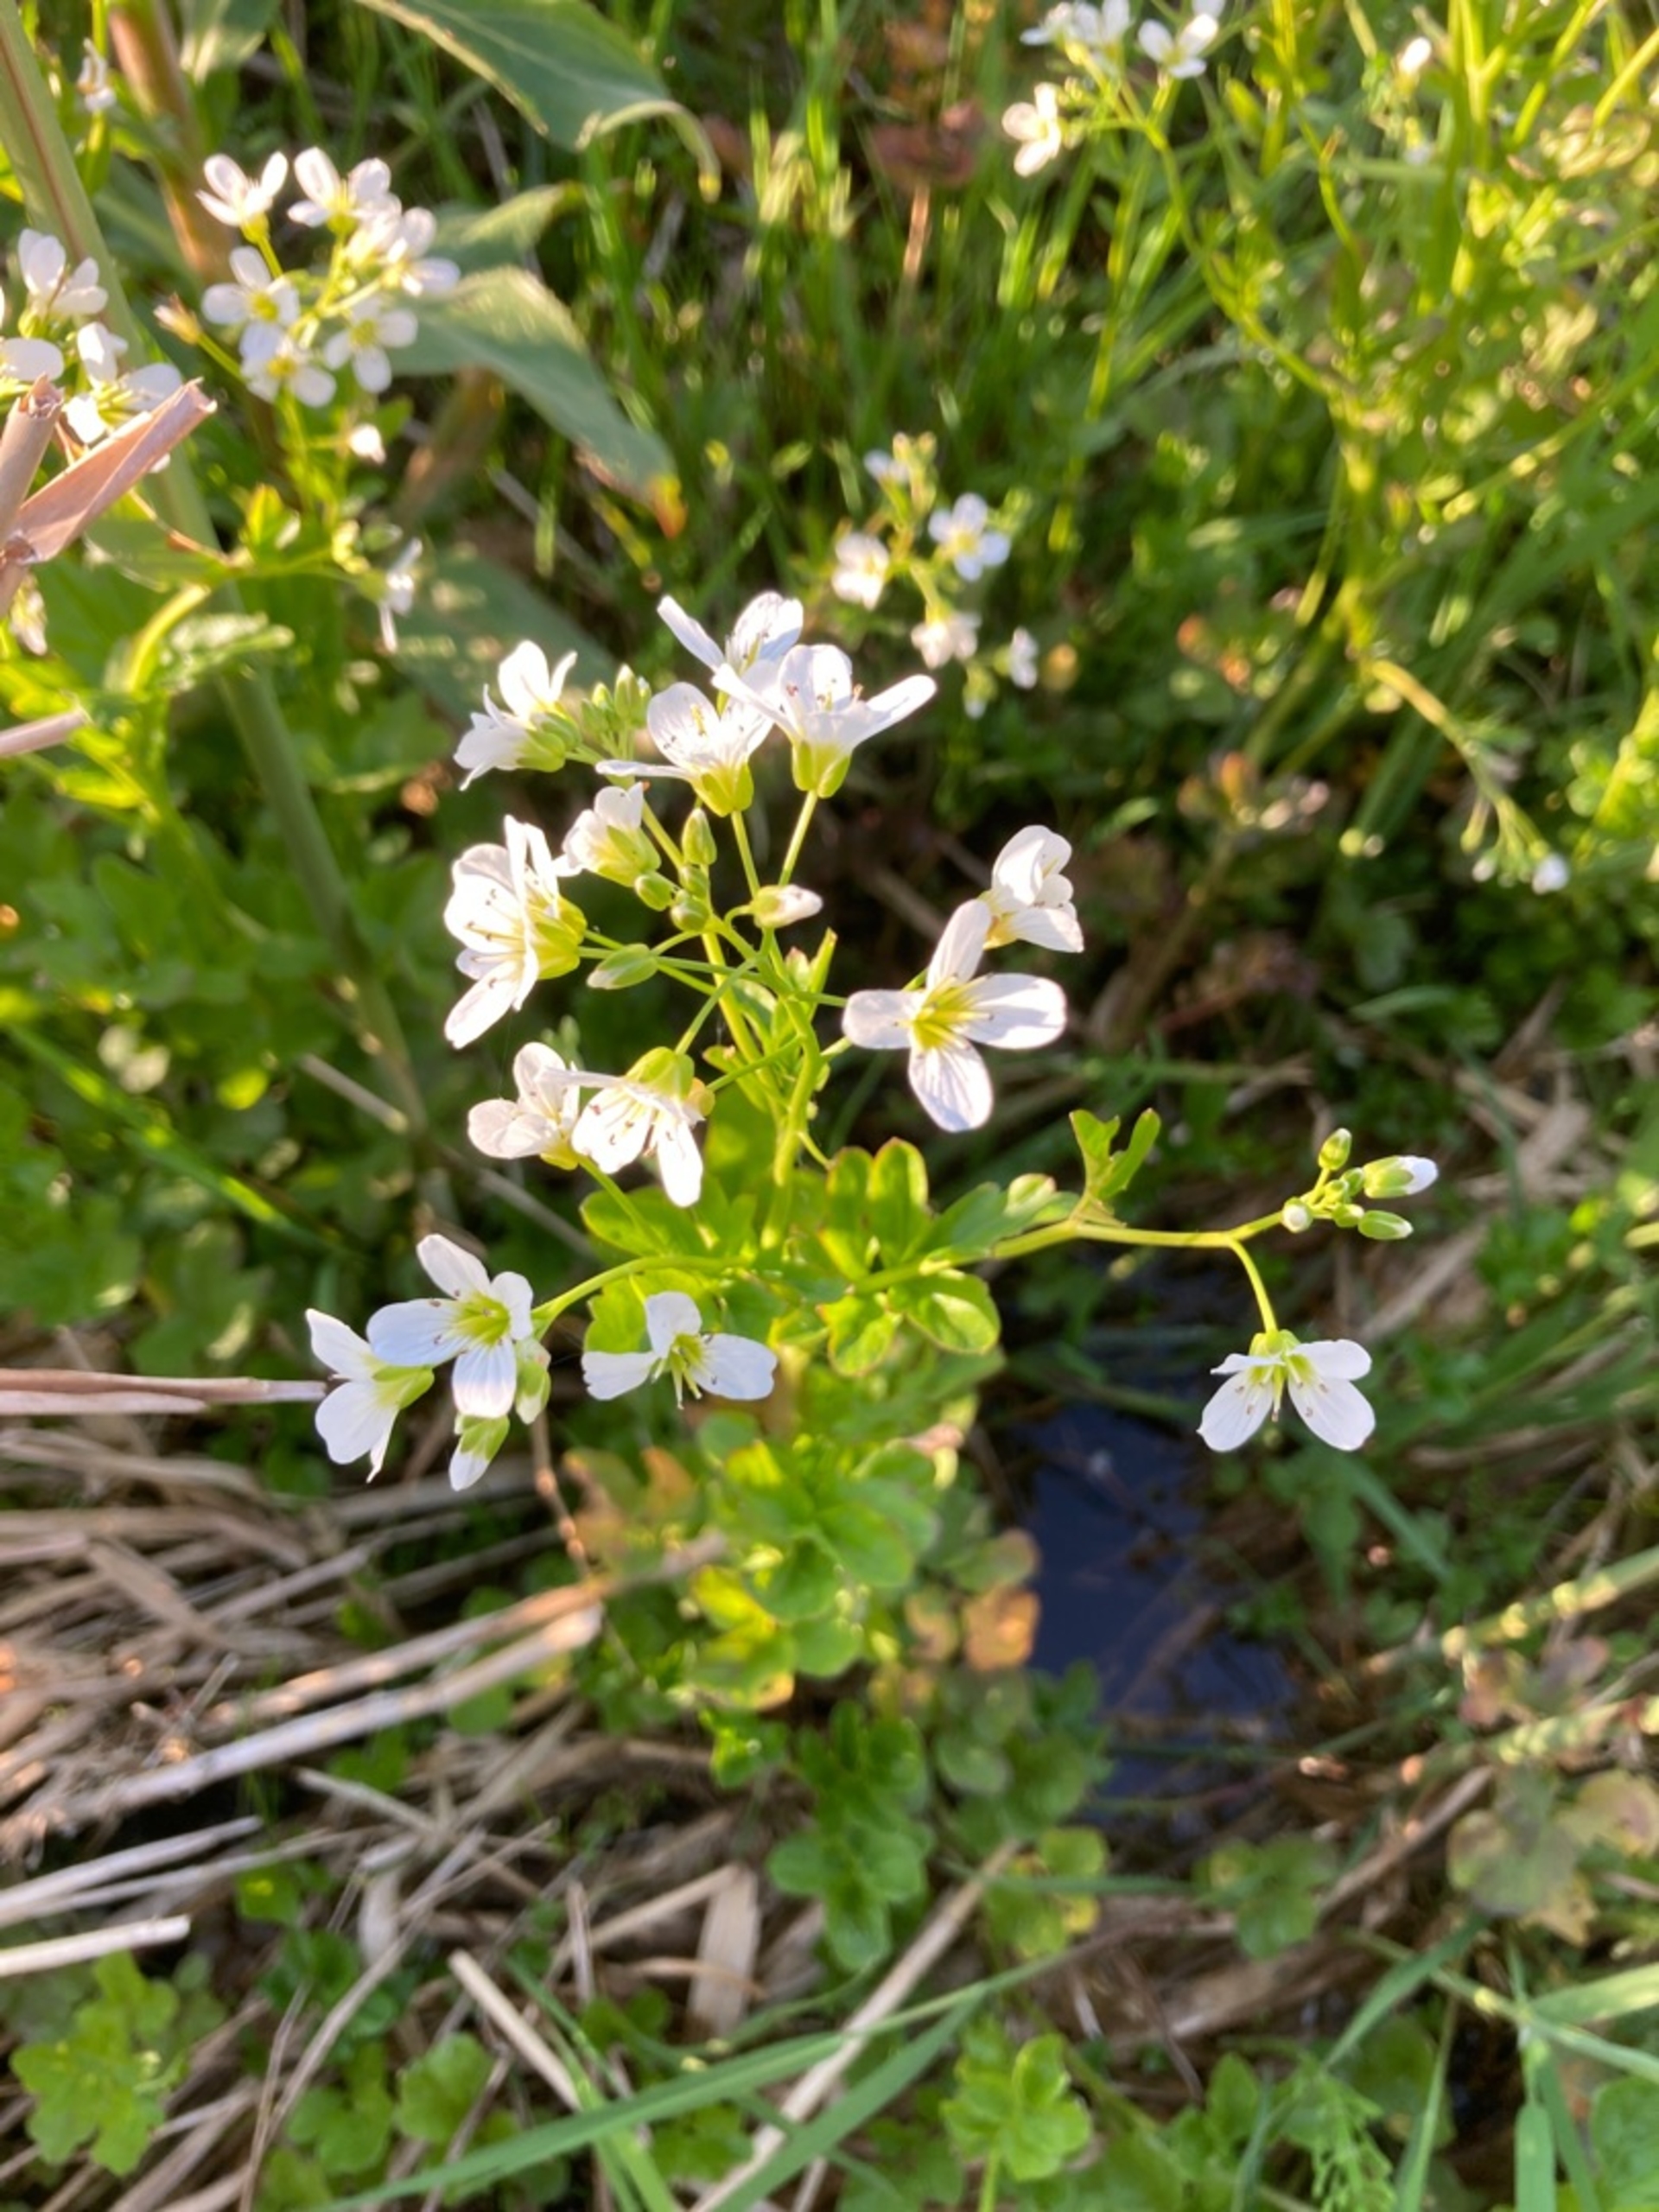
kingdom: Plantae
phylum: Tracheophyta
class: Magnoliopsida
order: Brassicales
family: Brassicaceae
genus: Cardamine
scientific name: Cardamine amara
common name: Vandkarse
